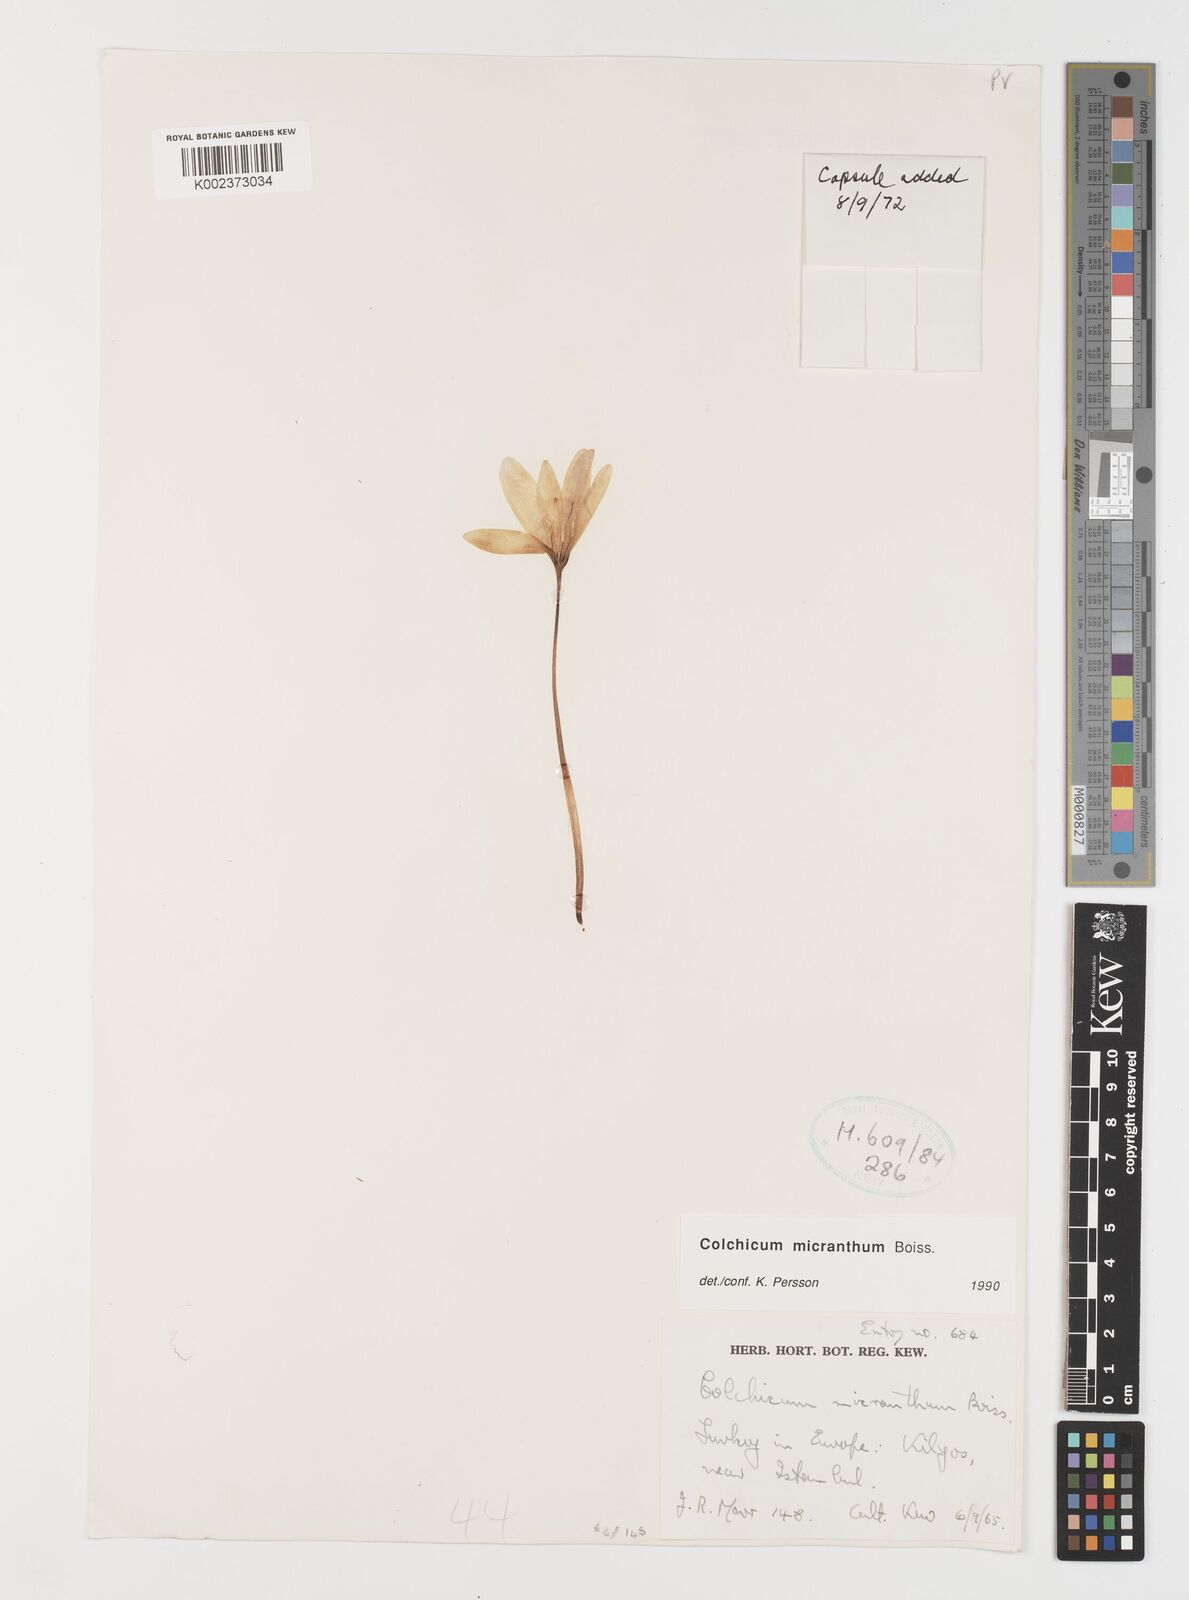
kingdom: Plantae
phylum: Tracheophyta
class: Liliopsida
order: Liliales
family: Colchicaceae
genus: Colchicum
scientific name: Colchicum micranthum
